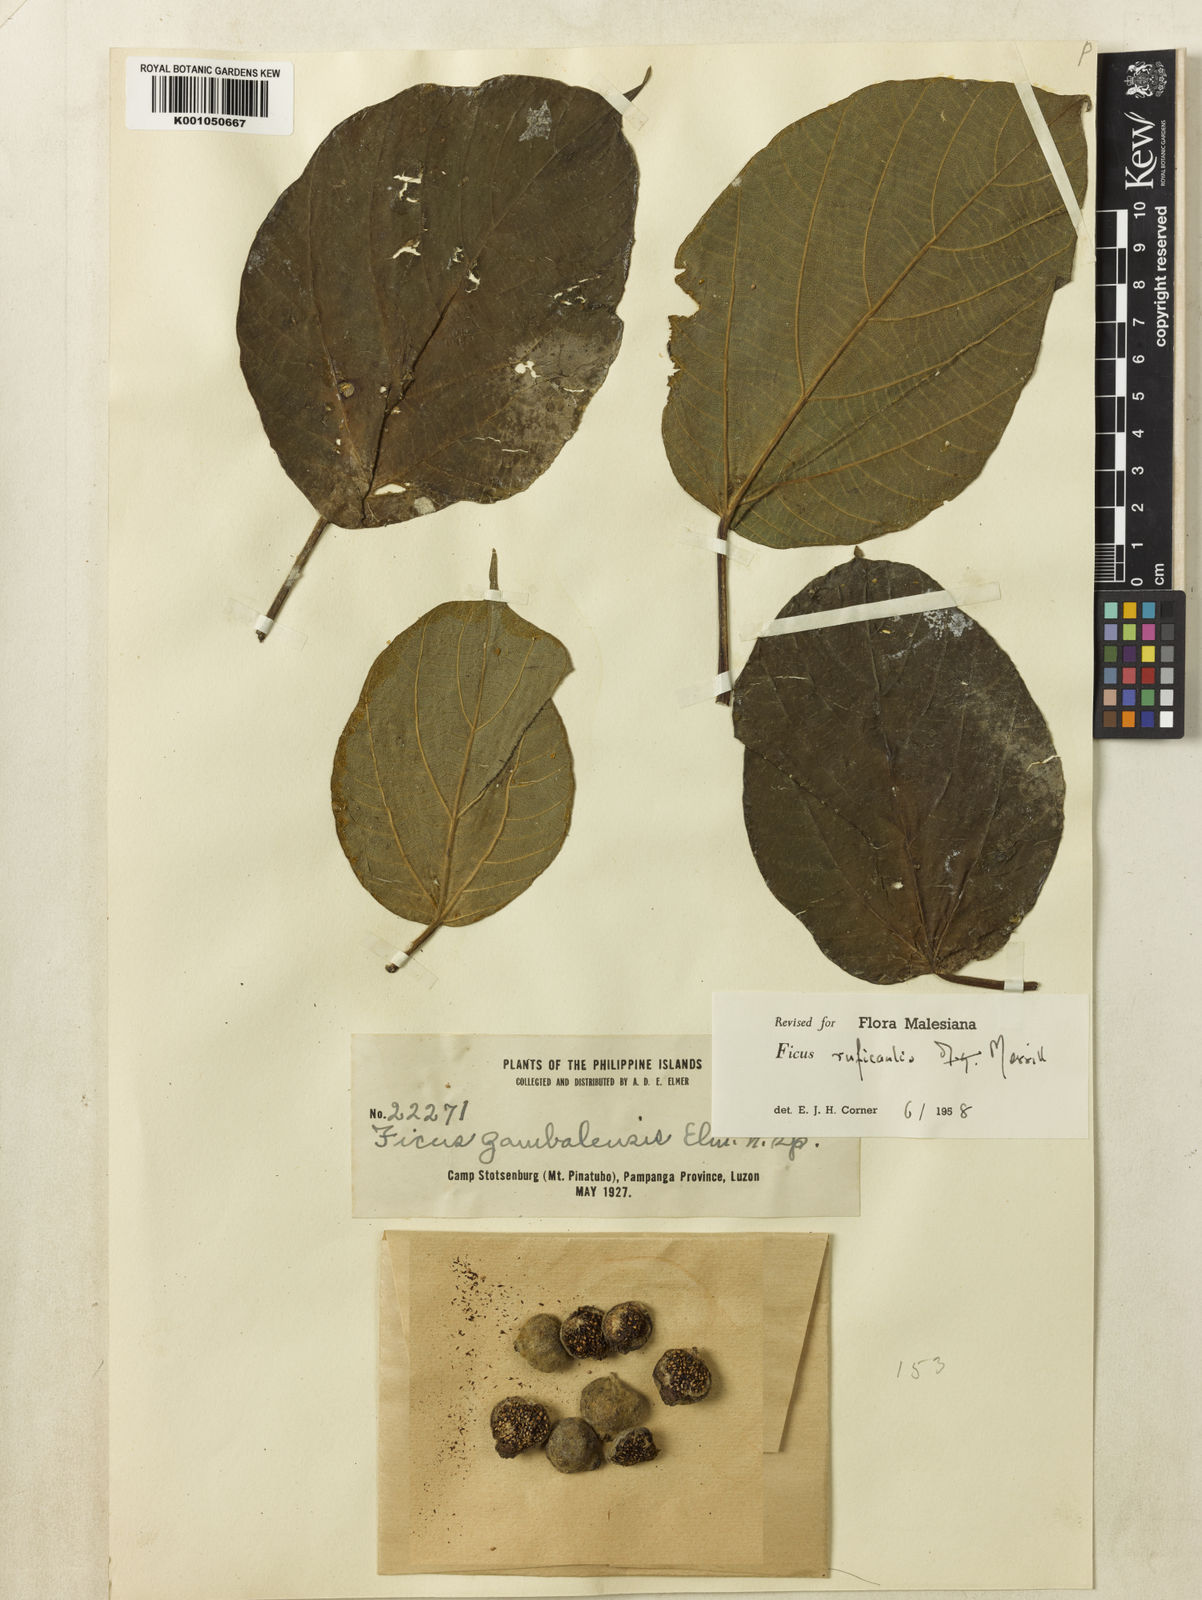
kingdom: Plantae
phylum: Tracheophyta
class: Magnoliopsida
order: Rosales
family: Moraceae
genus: Ficus
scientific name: Ficus ruficaulis
